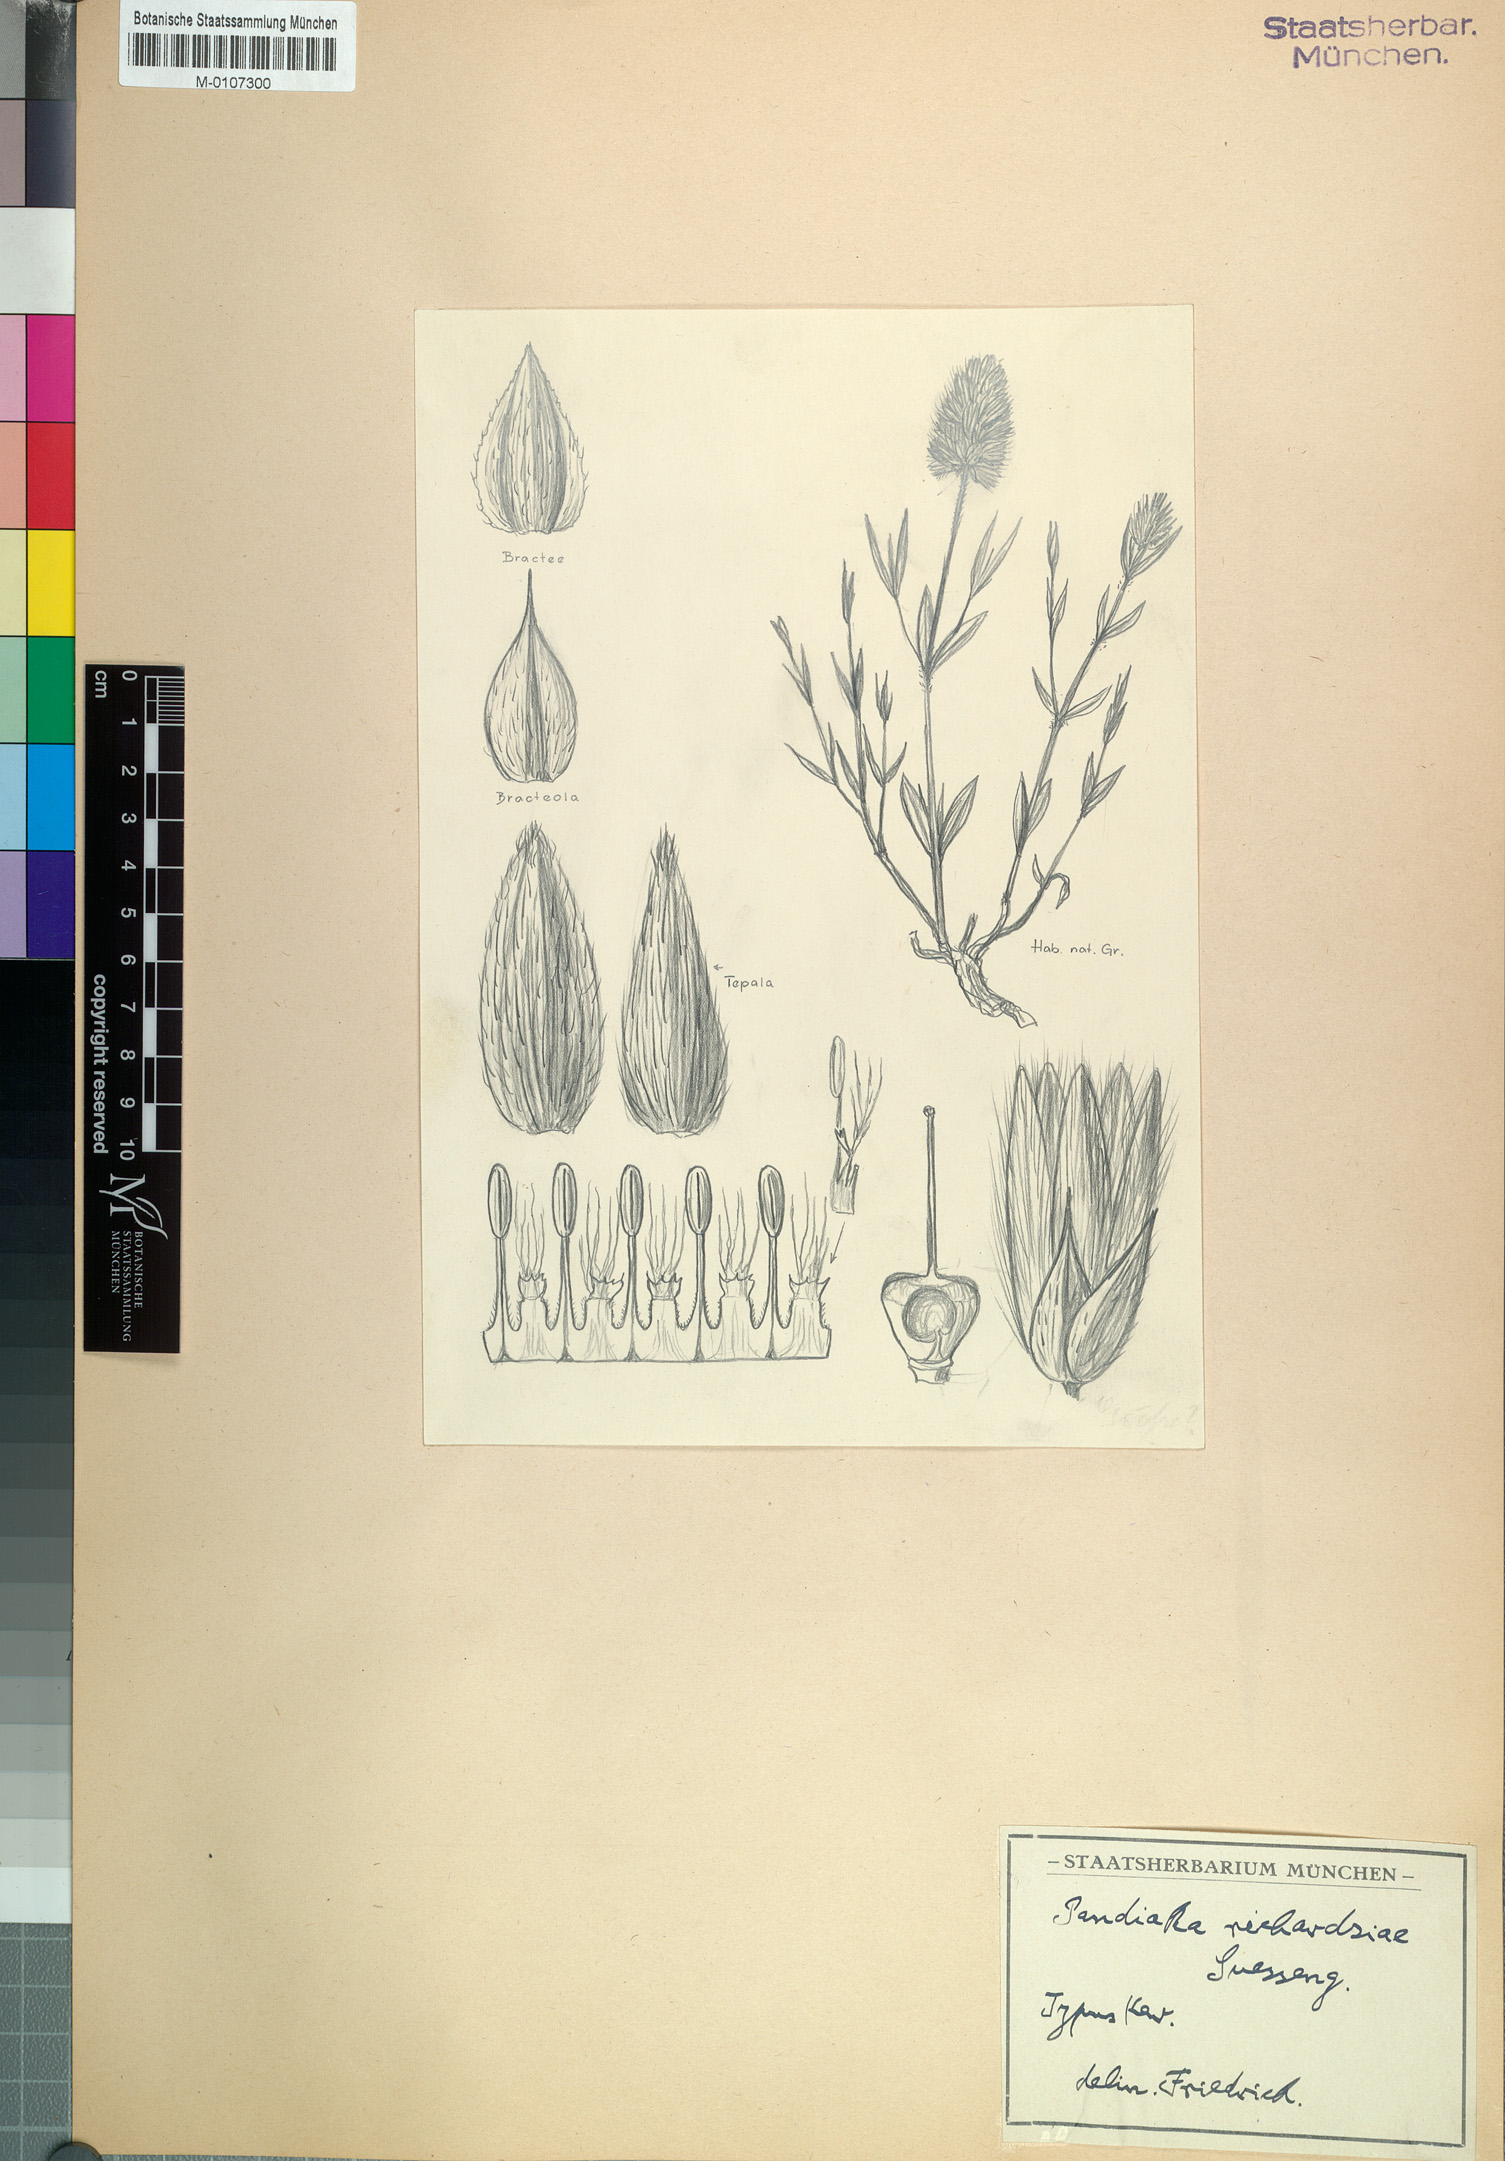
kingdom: Plantae
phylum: Tracheophyta
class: Magnoliopsida
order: Caryophyllales
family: Amaranthaceae
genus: Pandiaka
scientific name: Pandiaka richardsiae
